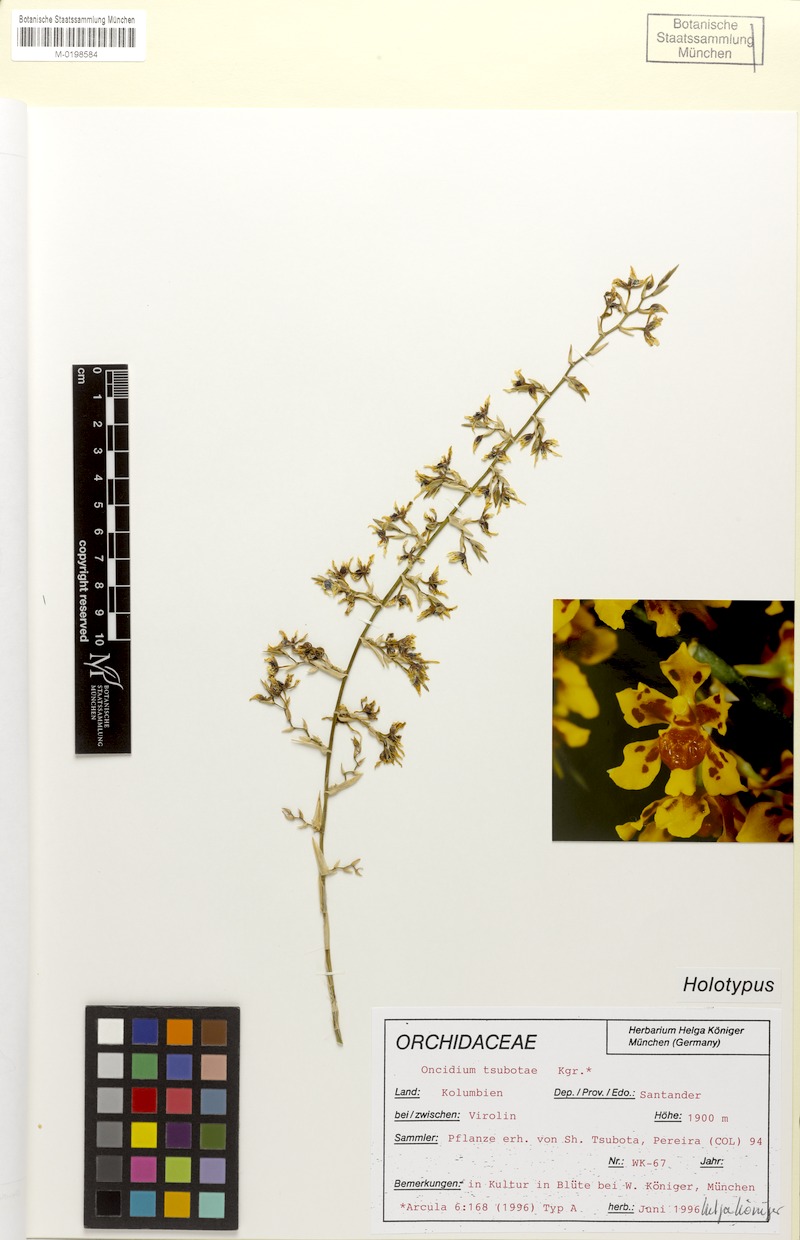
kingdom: Plantae
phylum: Tracheophyta
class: Liliopsida
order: Asparagales
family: Orchidaceae
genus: Oncidium
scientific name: Oncidium tsubotae
